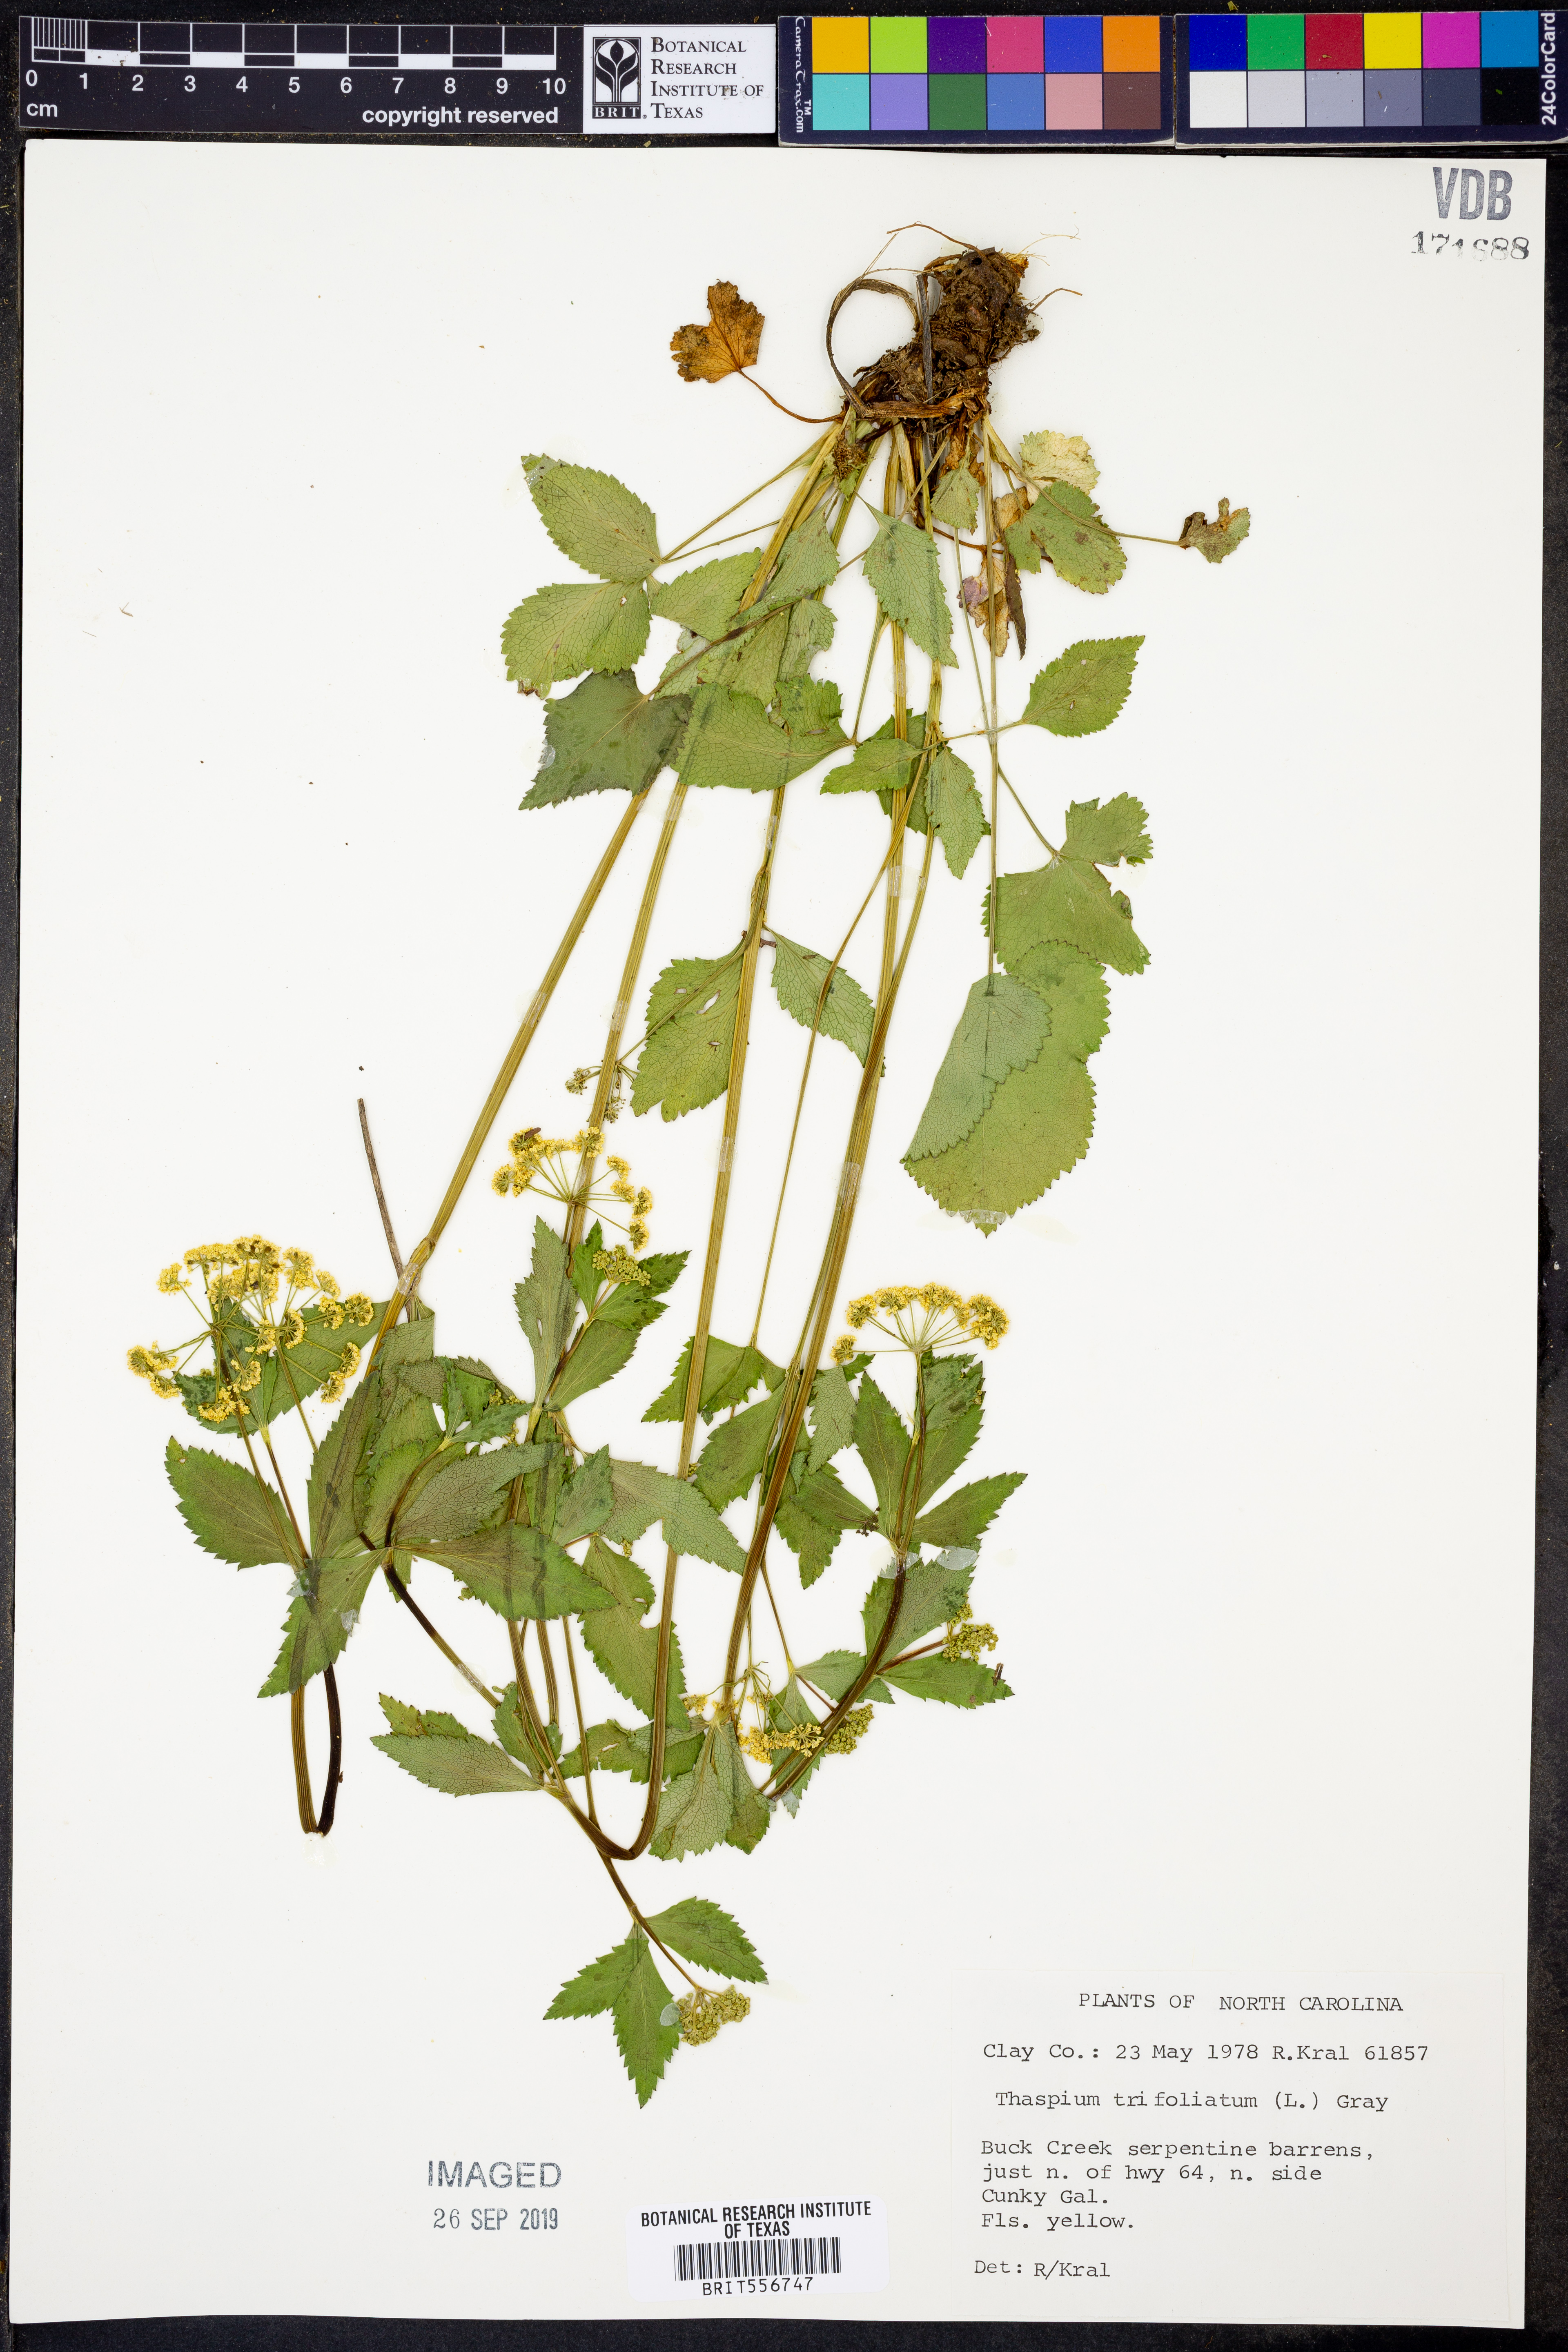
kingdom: Plantae
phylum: Tracheophyta
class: Magnoliopsida
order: Apiales
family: Apiaceae
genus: Thaspium
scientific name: Thaspium trifoliatum
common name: Purple meadow-parsnip
